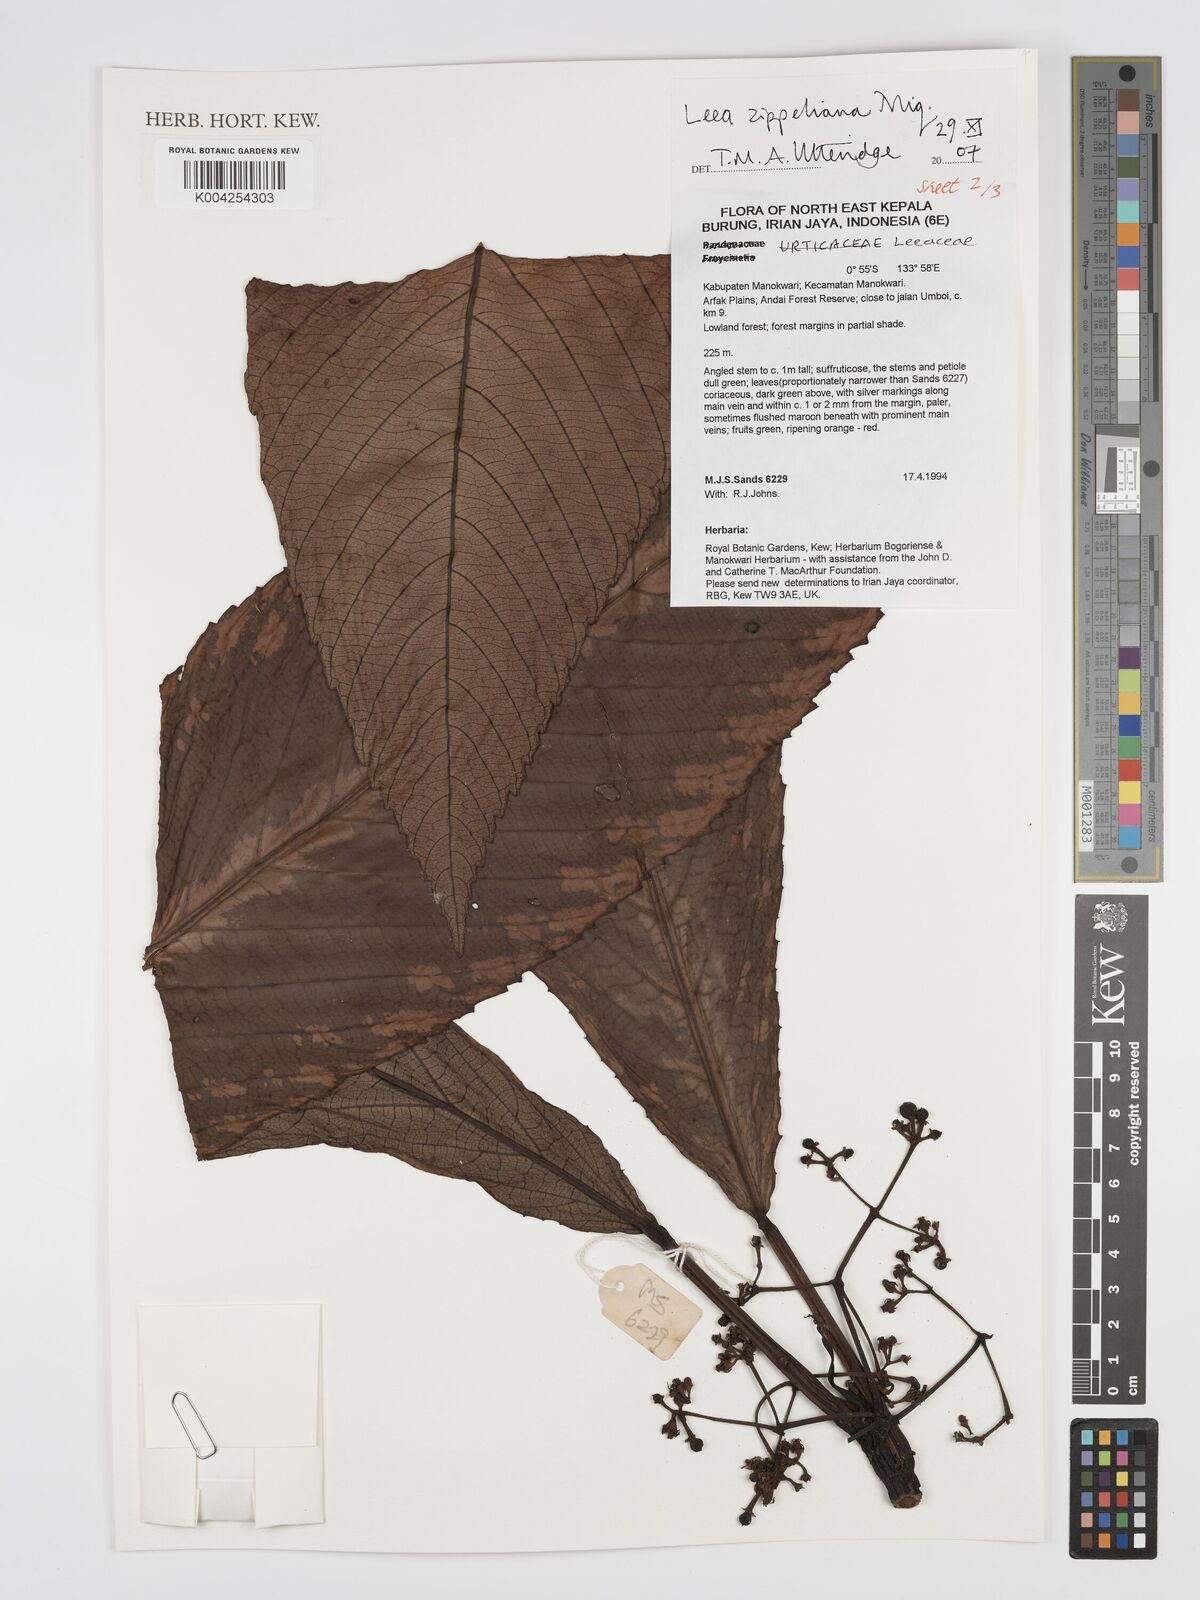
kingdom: Plantae
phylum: Tracheophyta
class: Magnoliopsida
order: Vitales
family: Vitaceae
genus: Leea
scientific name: Leea zippeliana
